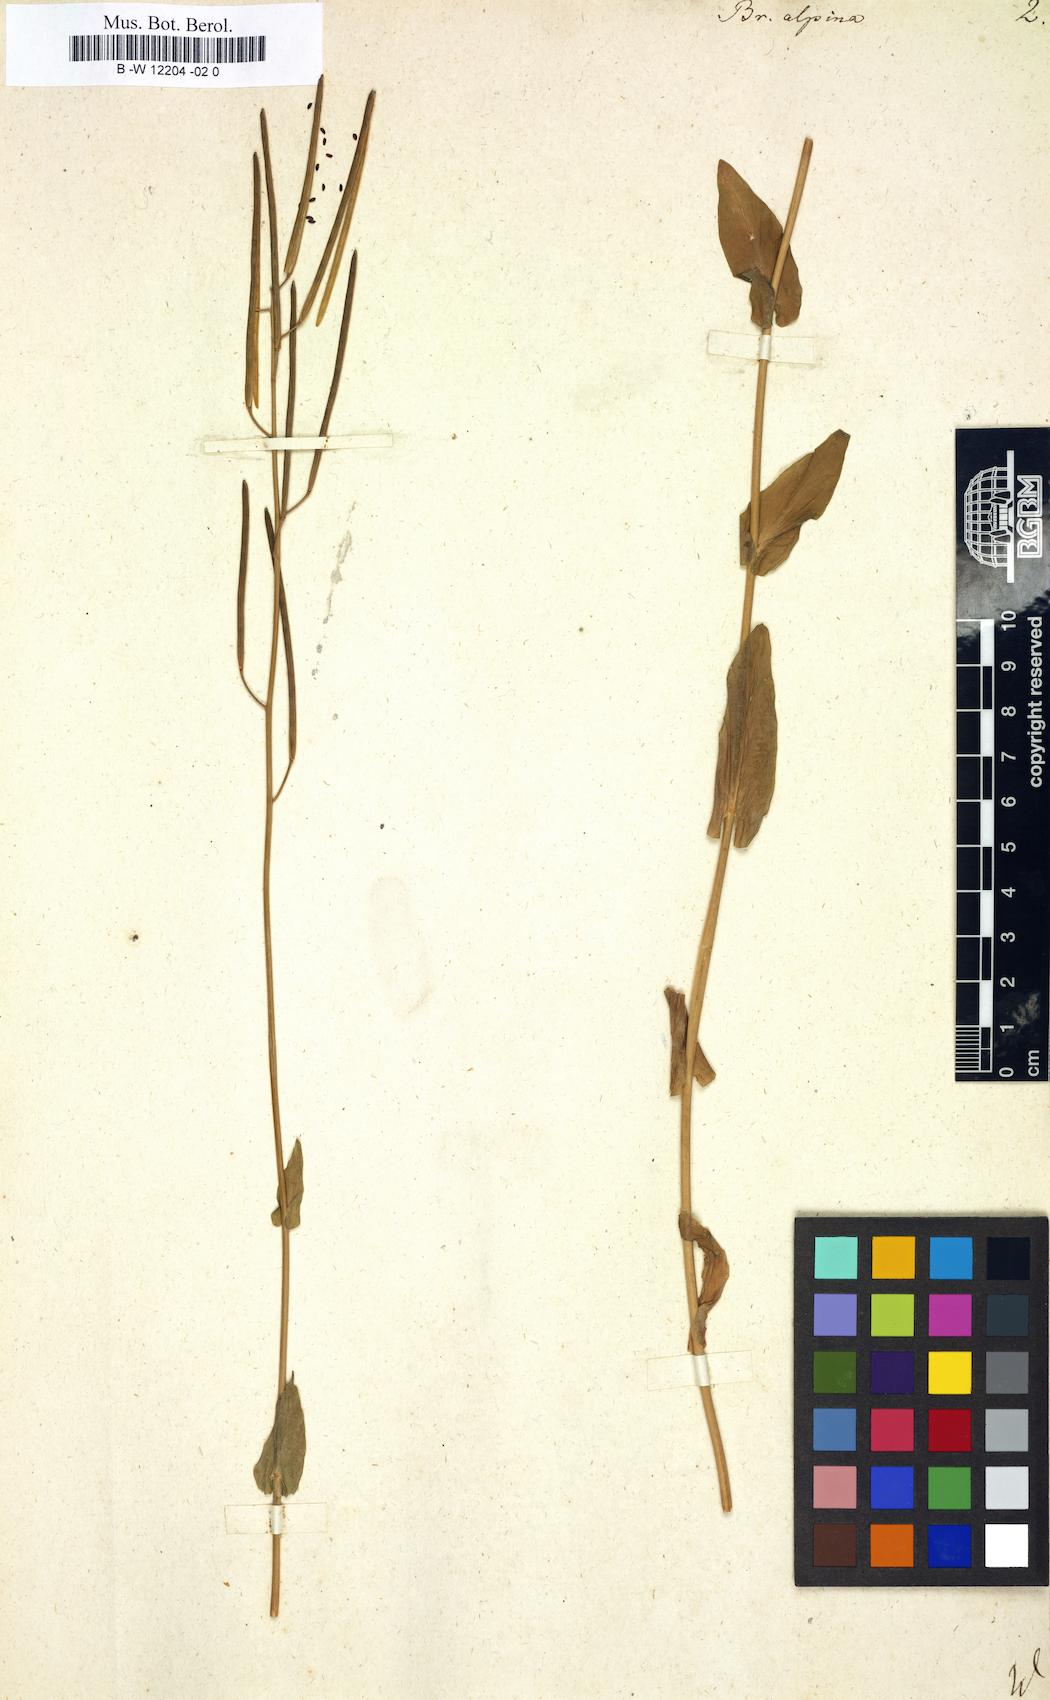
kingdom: Plantae
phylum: Tracheophyta
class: Magnoliopsida
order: Brassicales
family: Brassicaceae
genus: Fourraea
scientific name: Fourraea alpina
